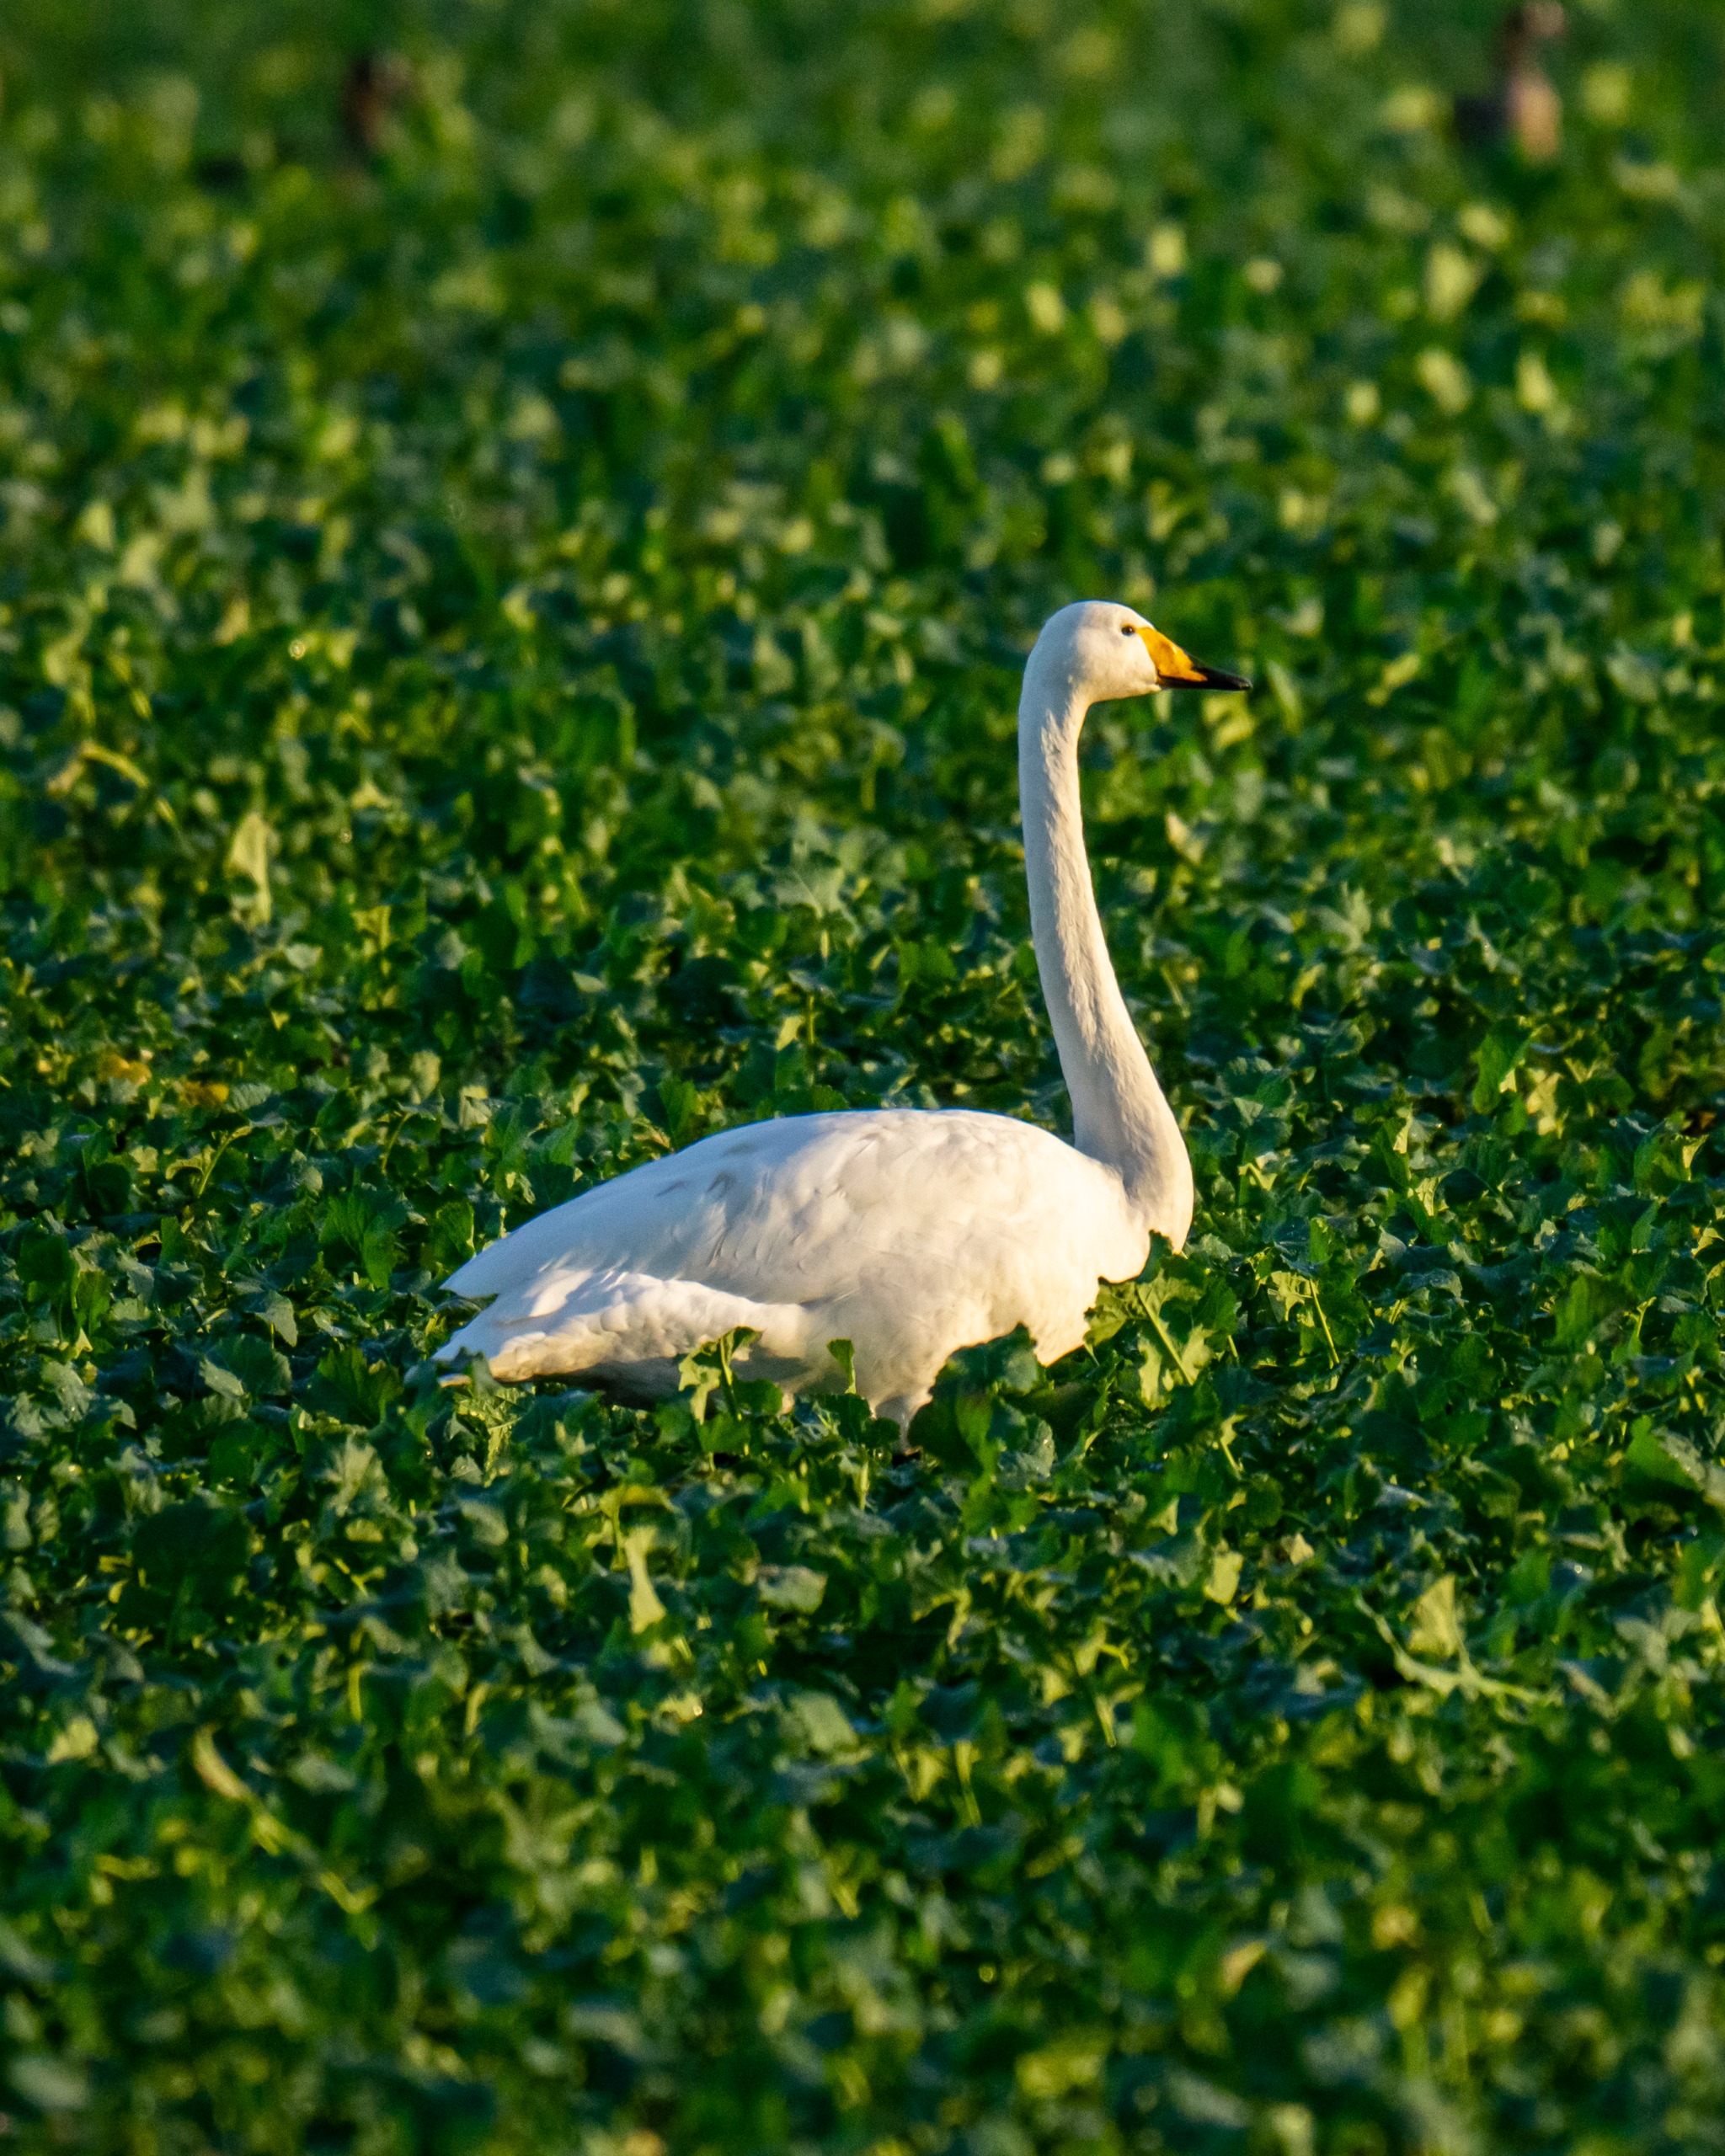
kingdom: Animalia
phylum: Chordata
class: Aves
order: Anseriformes
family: Anatidae
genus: Cygnus
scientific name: Cygnus cygnus
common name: Sangsvane
